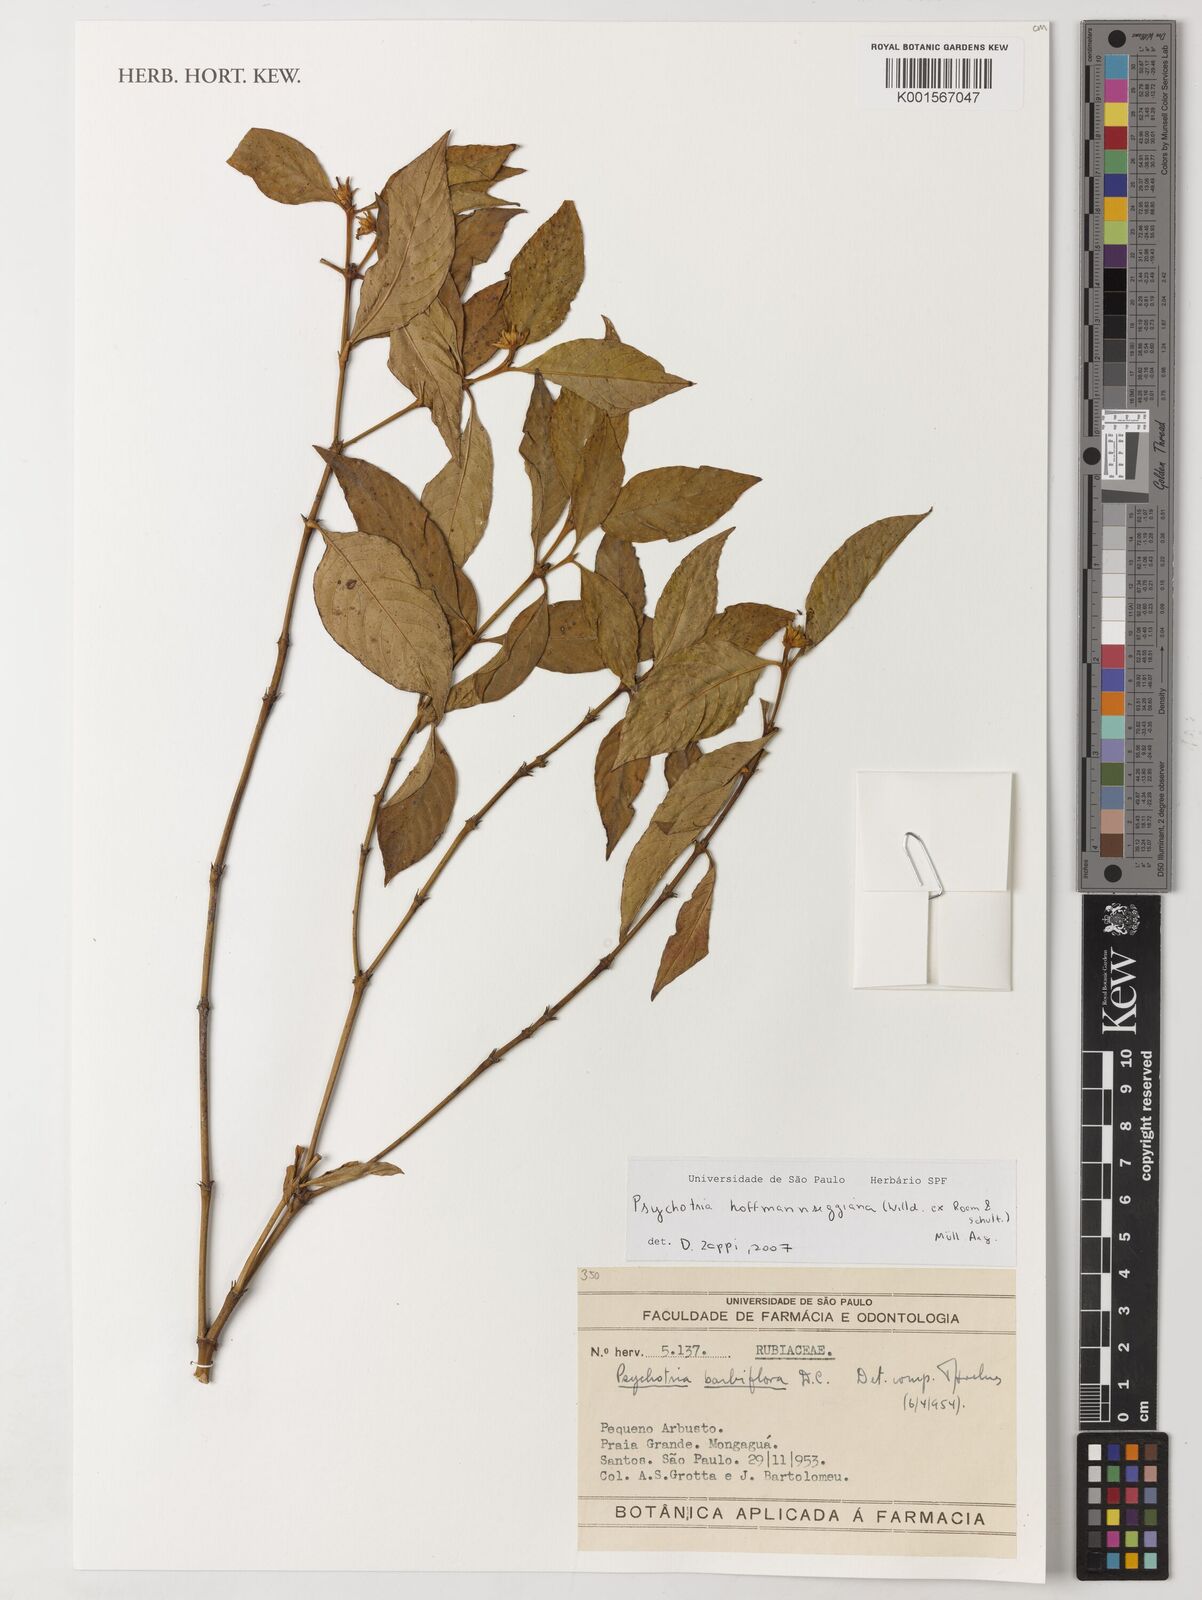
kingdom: Plantae
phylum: Tracheophyta
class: Magnoliopsida
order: Gentianales
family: Rubiaceae
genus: Palicourea
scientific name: Palicourea hoffmannseggiana
